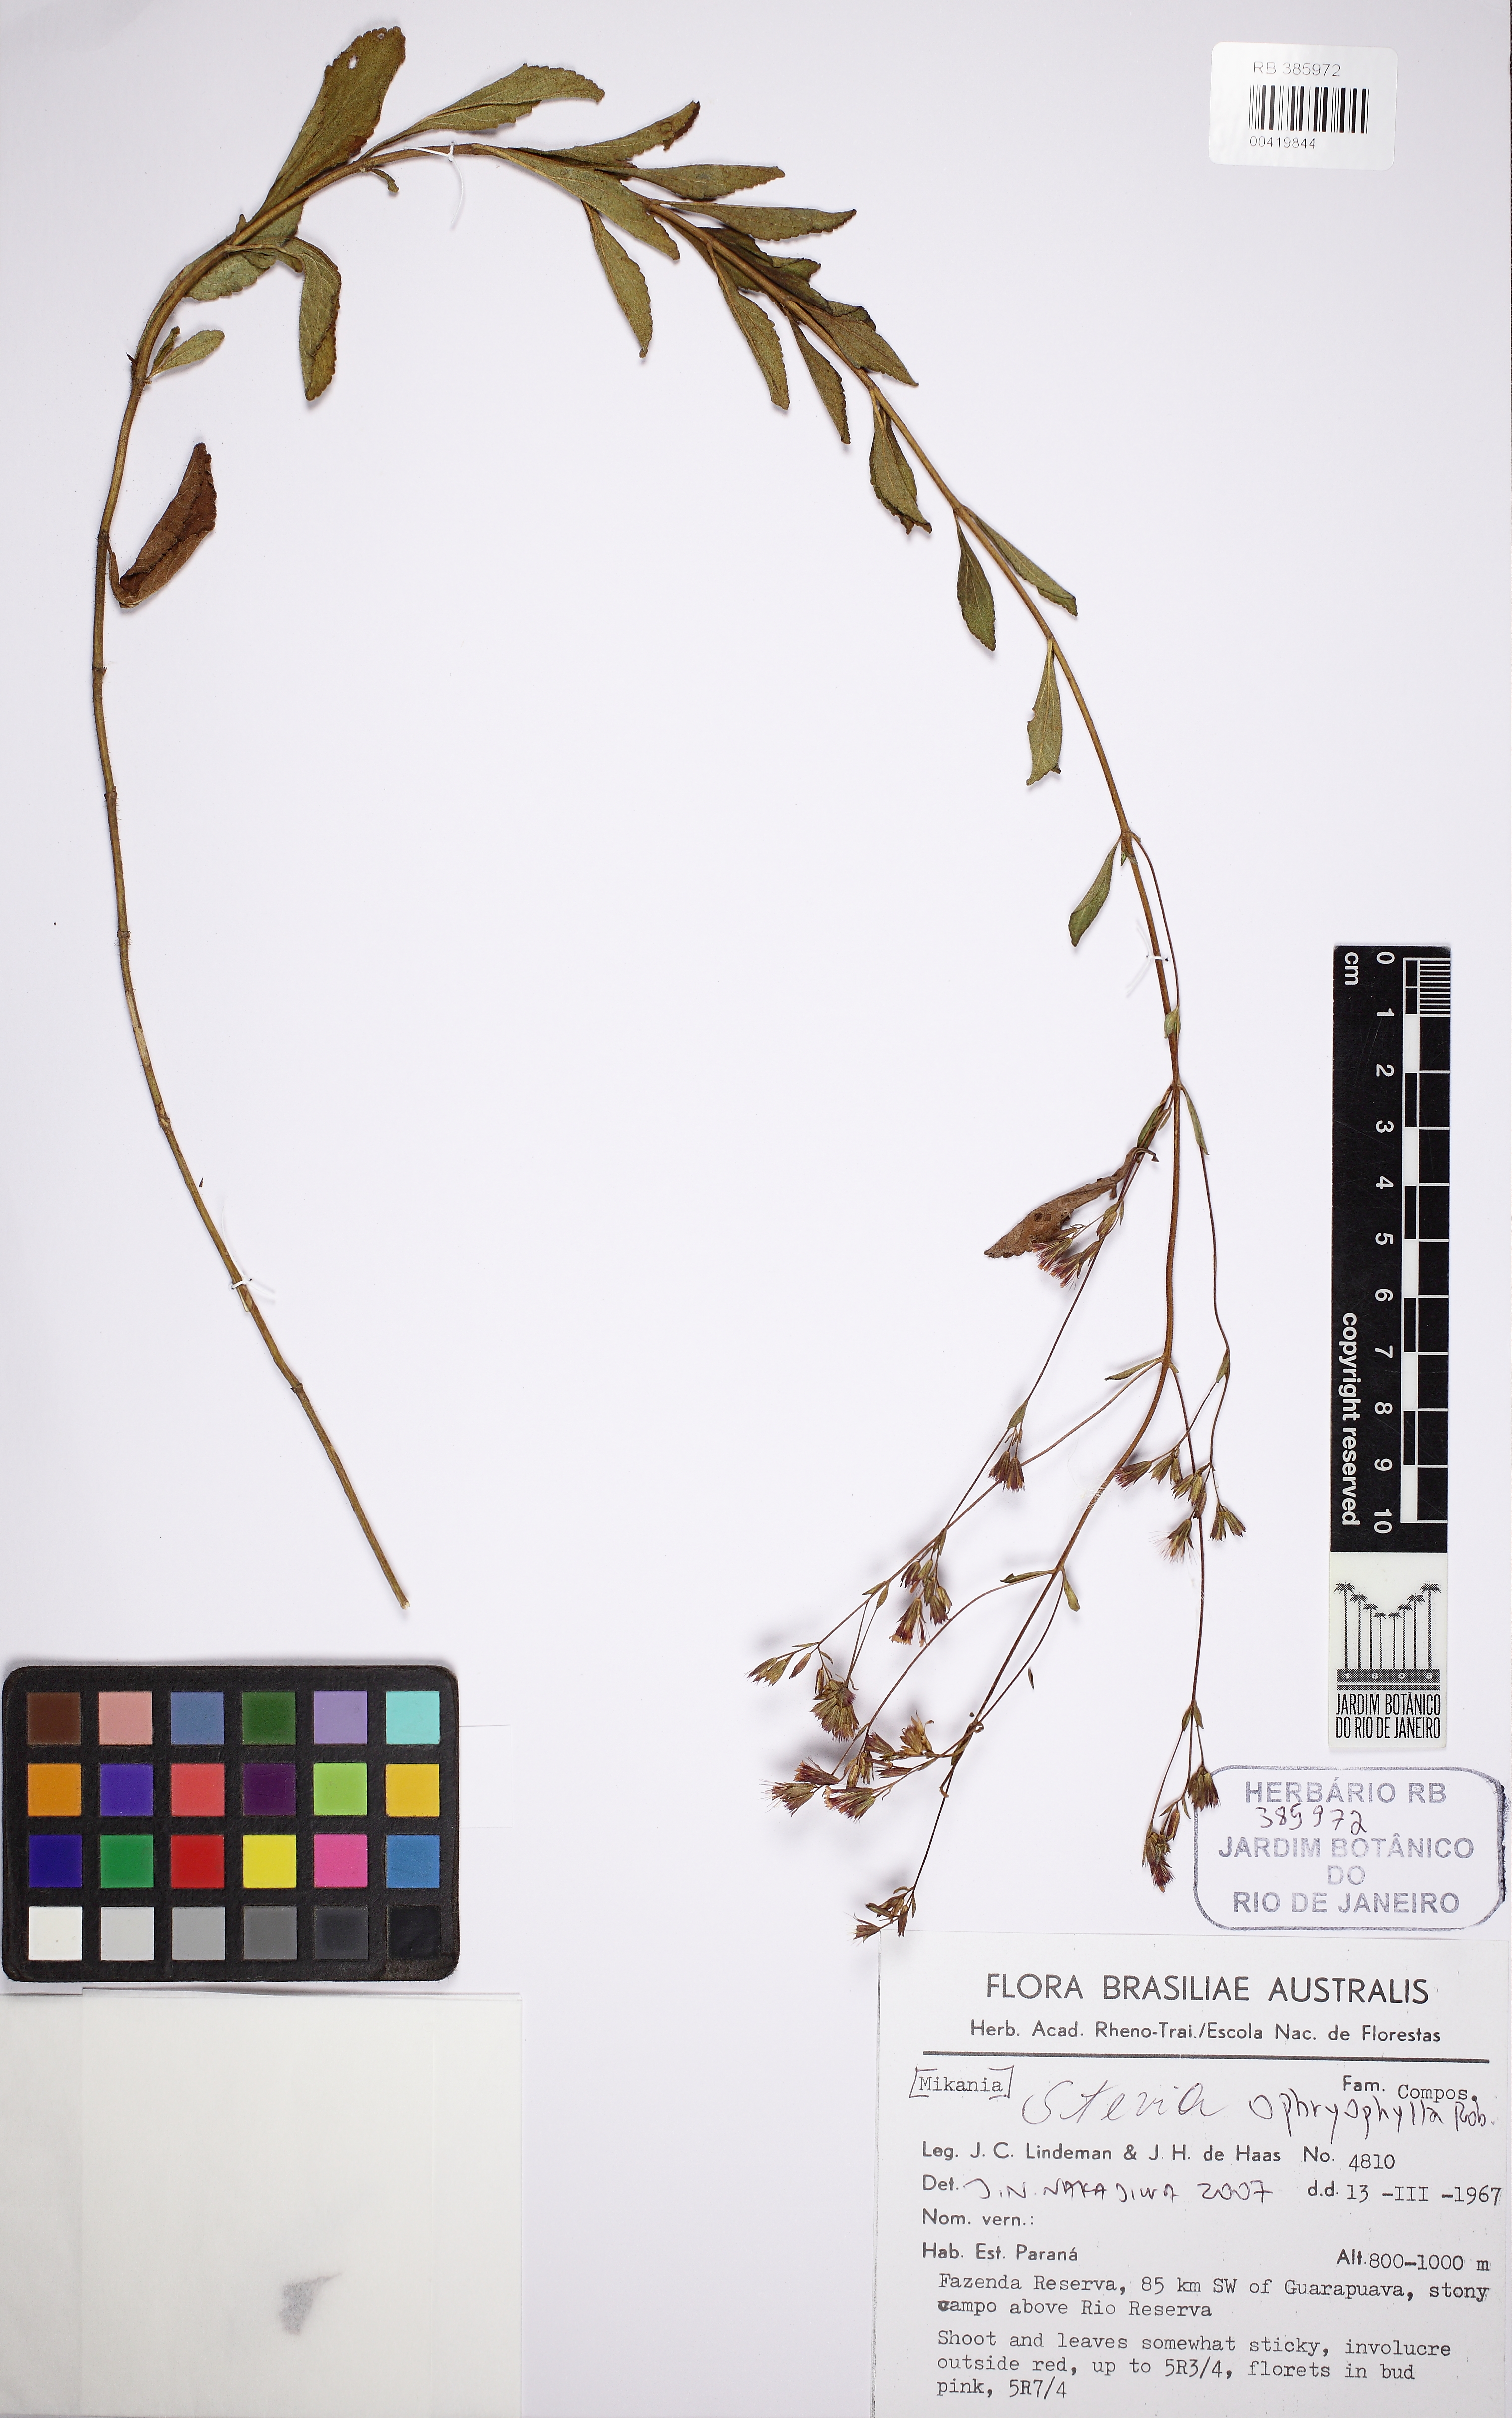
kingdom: Plantae
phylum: Tracheophyta
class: Magnoliopsida
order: Asterales
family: Asteraceae
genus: Stevia
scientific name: Stevia ophryophylla
